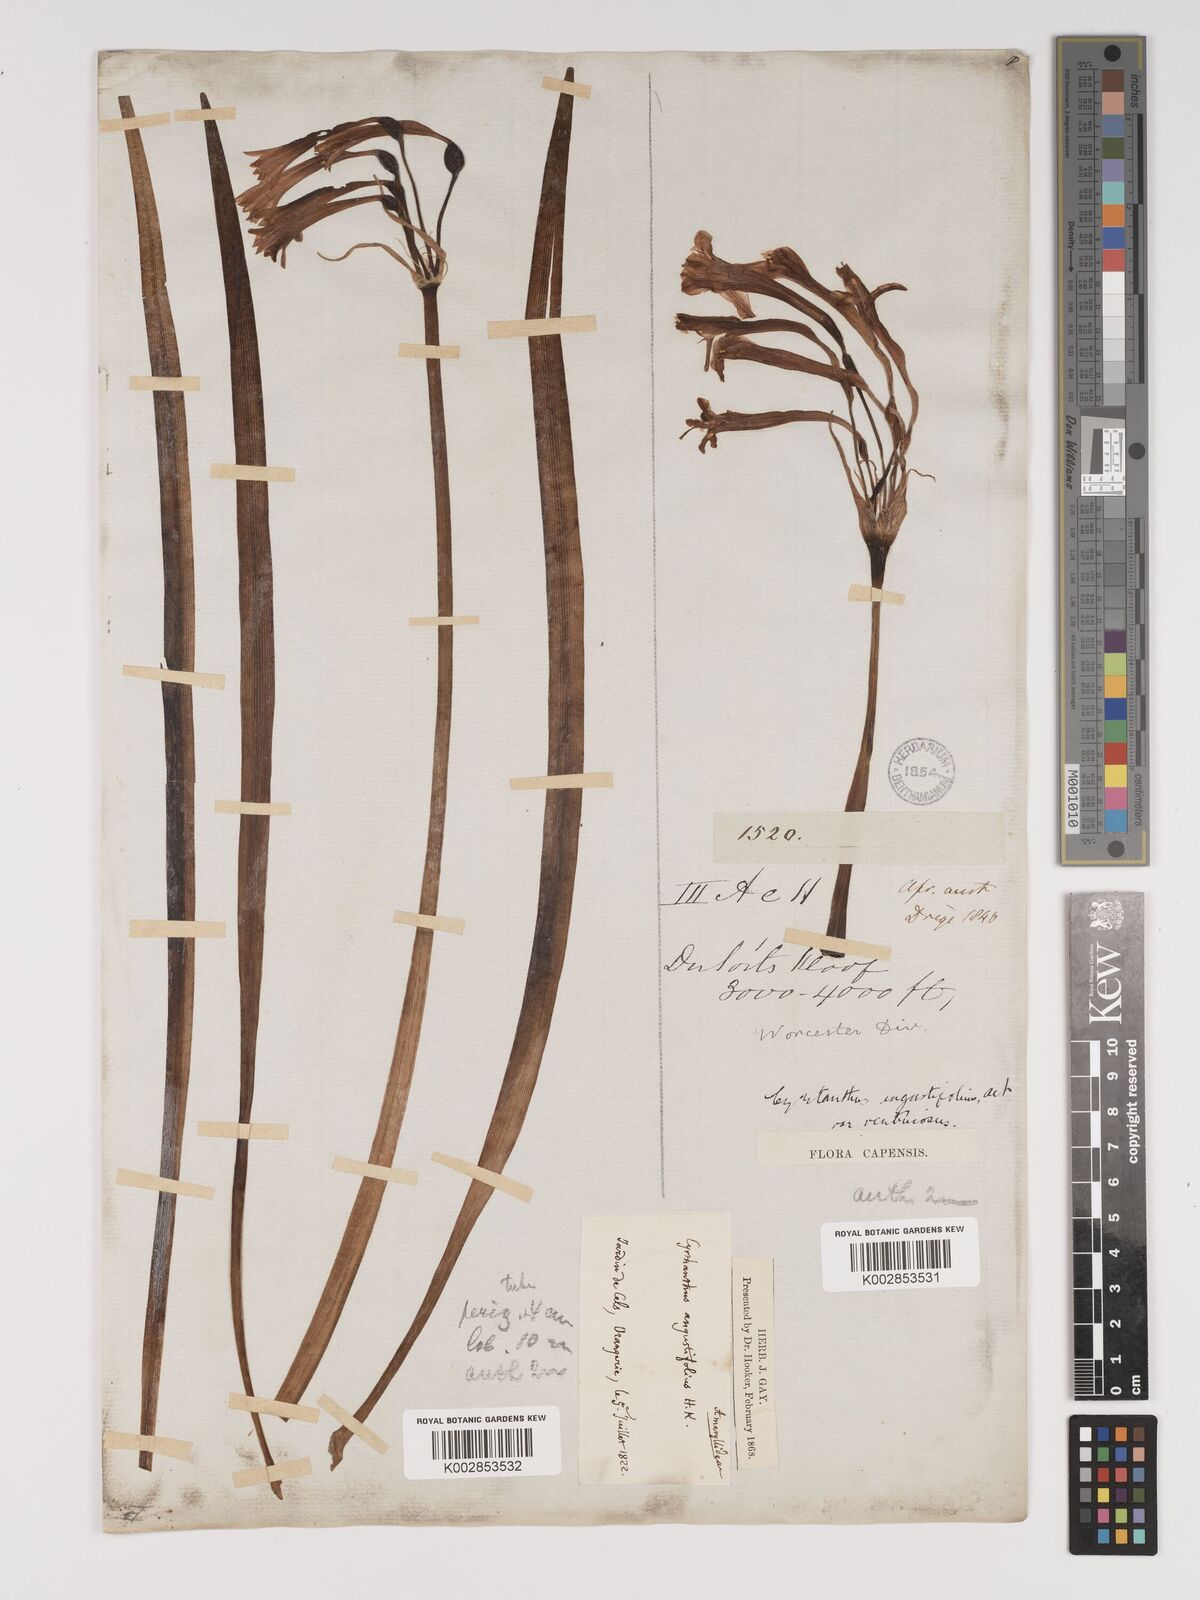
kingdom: Plantae
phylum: Tracheophyta
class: Liliopsida
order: Asparagales
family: Amaryllidaceae
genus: Cyrtanthus
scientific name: Cyrtanthus angustifolius
